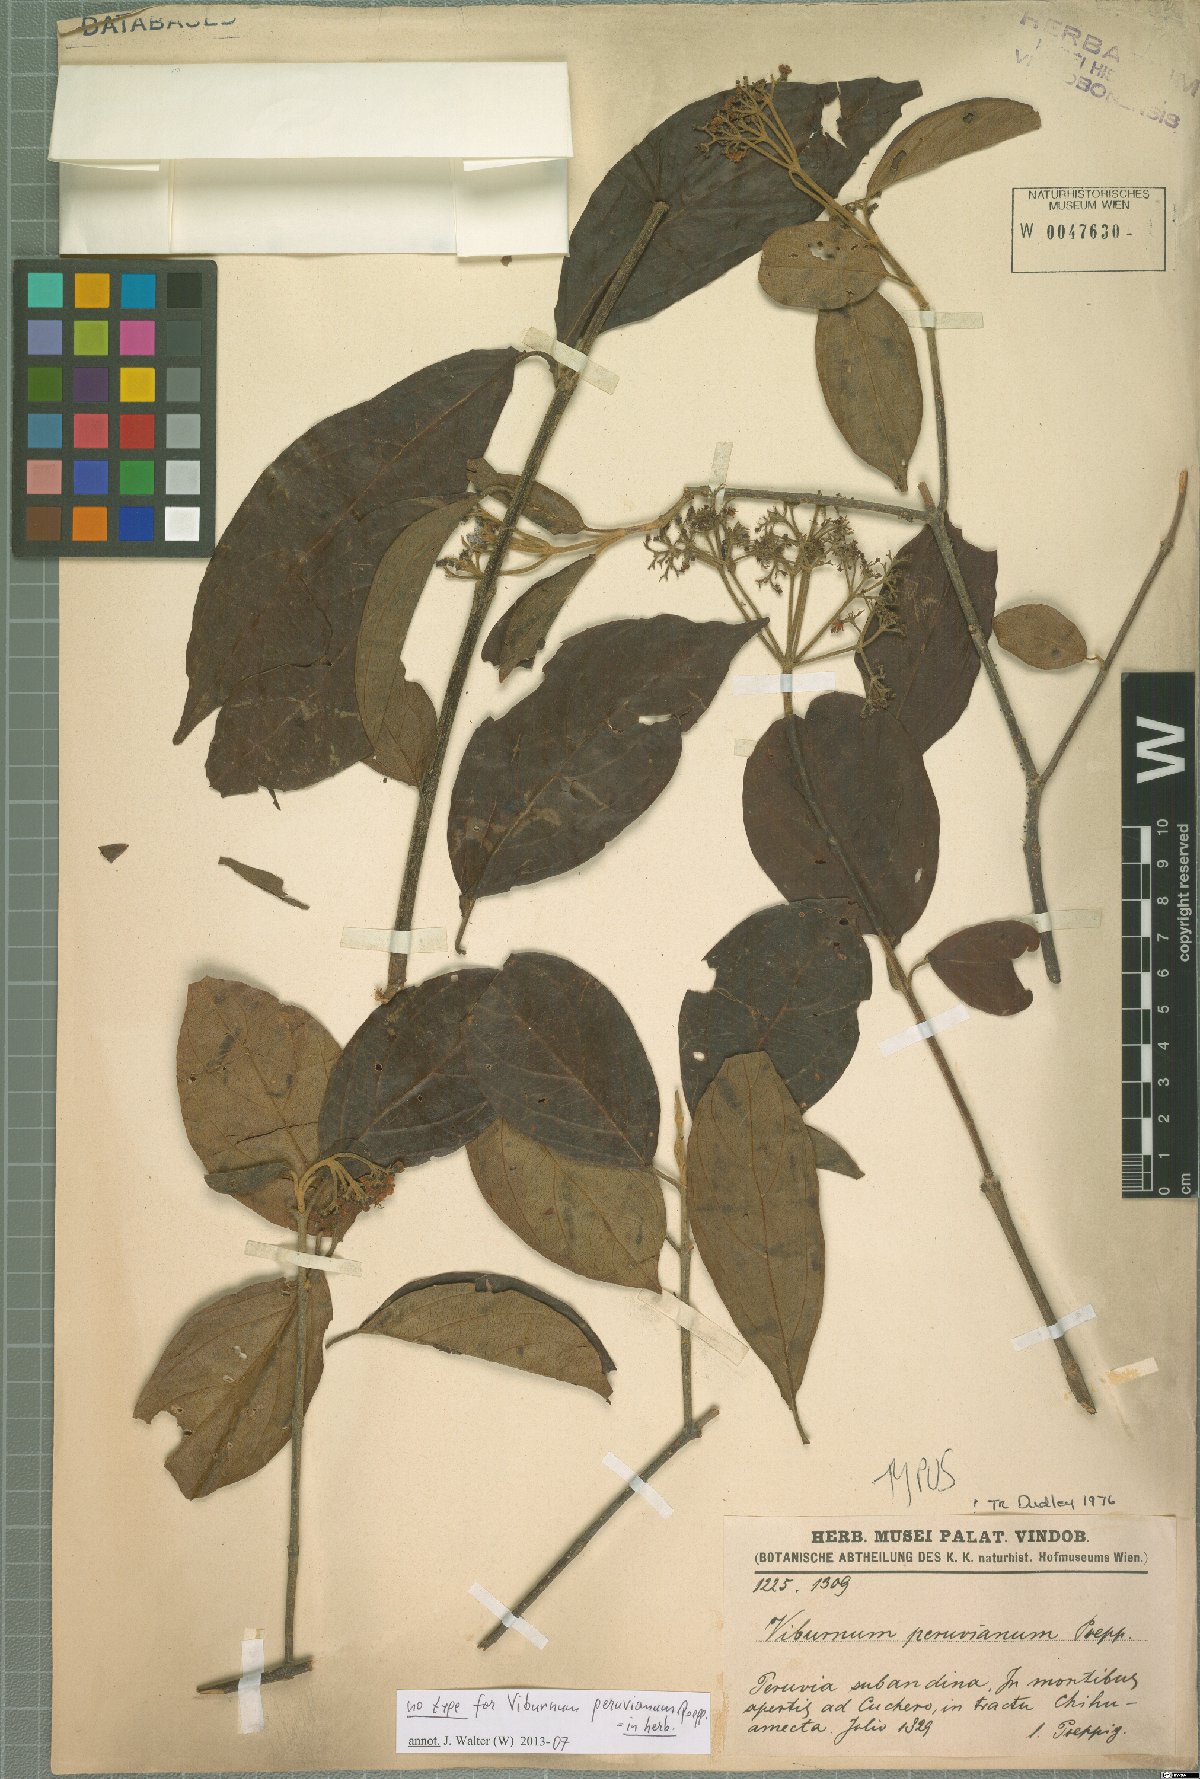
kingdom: Plantae
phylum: Tracheophyta
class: Magnoliopsida
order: Dipsacales
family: Viburnaceae
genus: Viburnum
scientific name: Viburnum peruvianum
